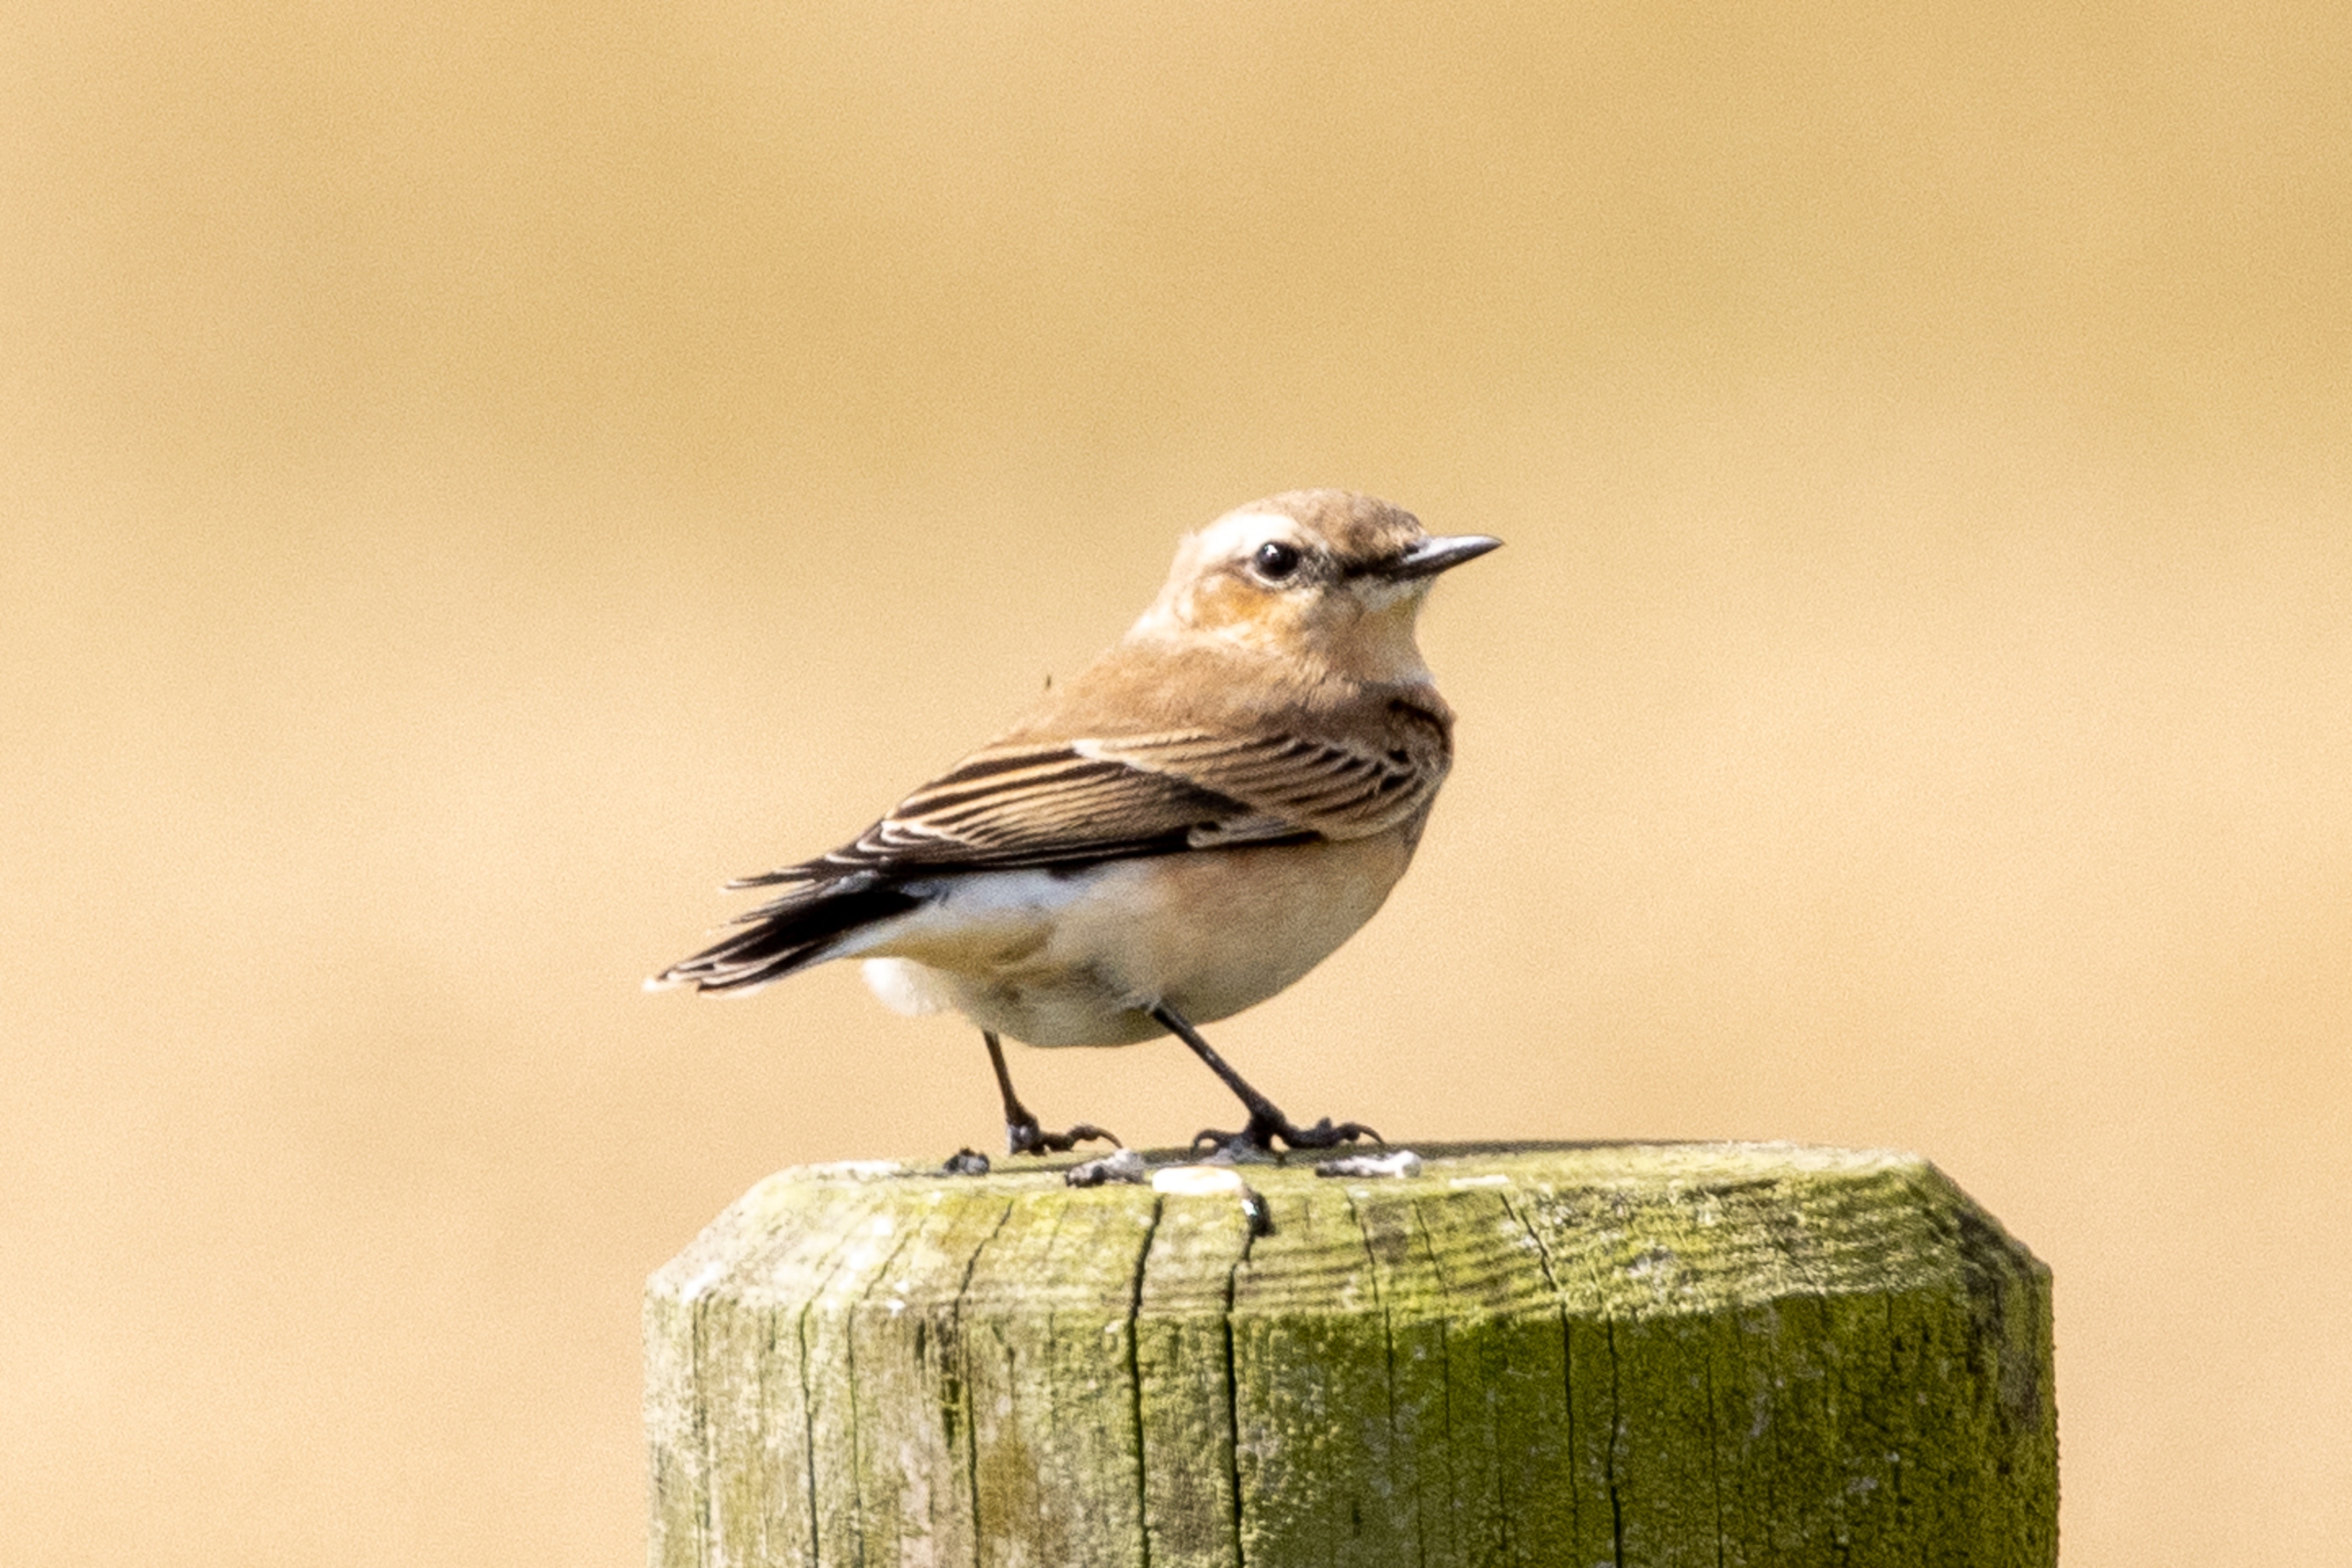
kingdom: Animalia
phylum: Chordata
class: Aves
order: Passeriformes
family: Muscicapidae
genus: Oenanthe
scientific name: Oenanthe oenanthe
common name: Stenpikker
